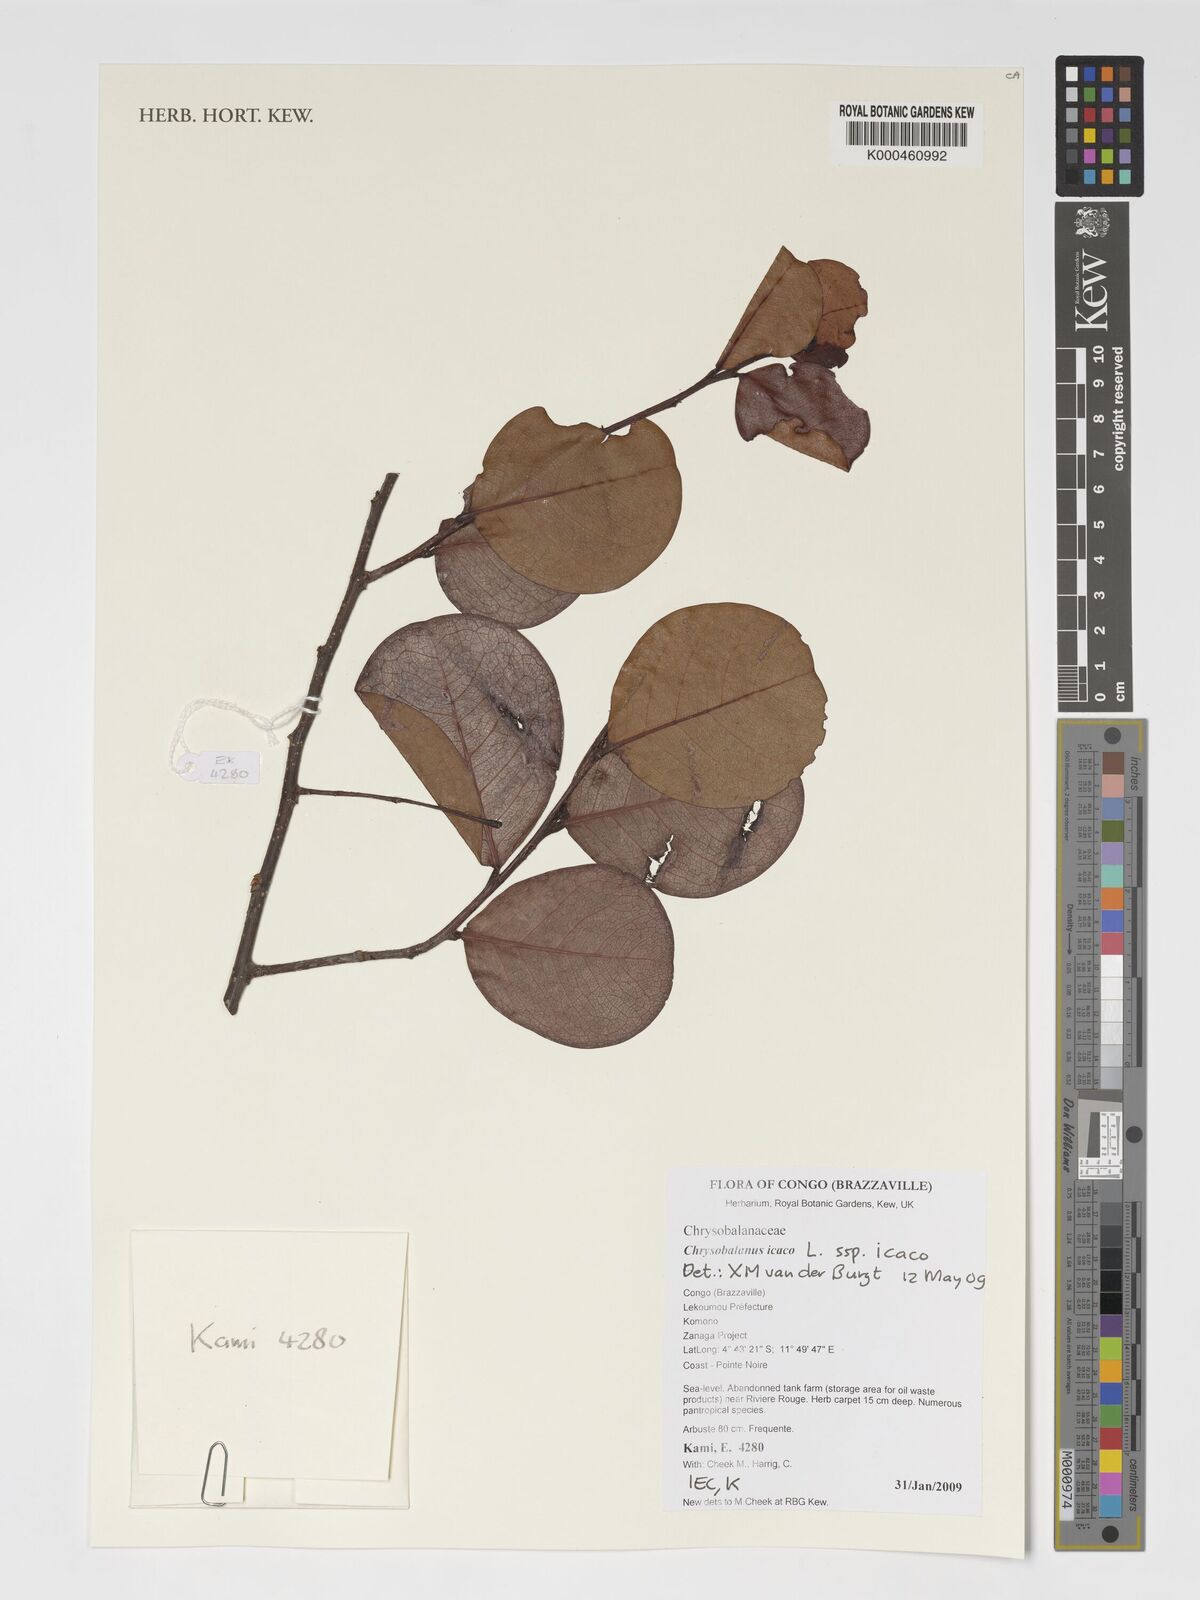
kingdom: Plantae
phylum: Tracheophyta
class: Magnoliopsida
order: Malpighiales
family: Chrysobalanaceae
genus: Chrysobalanus
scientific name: Chrysobalanus icaco
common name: Coco plum
